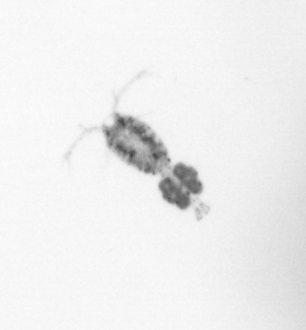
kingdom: Animalia
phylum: Arthropoda
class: Copepoda
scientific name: Copepoda
